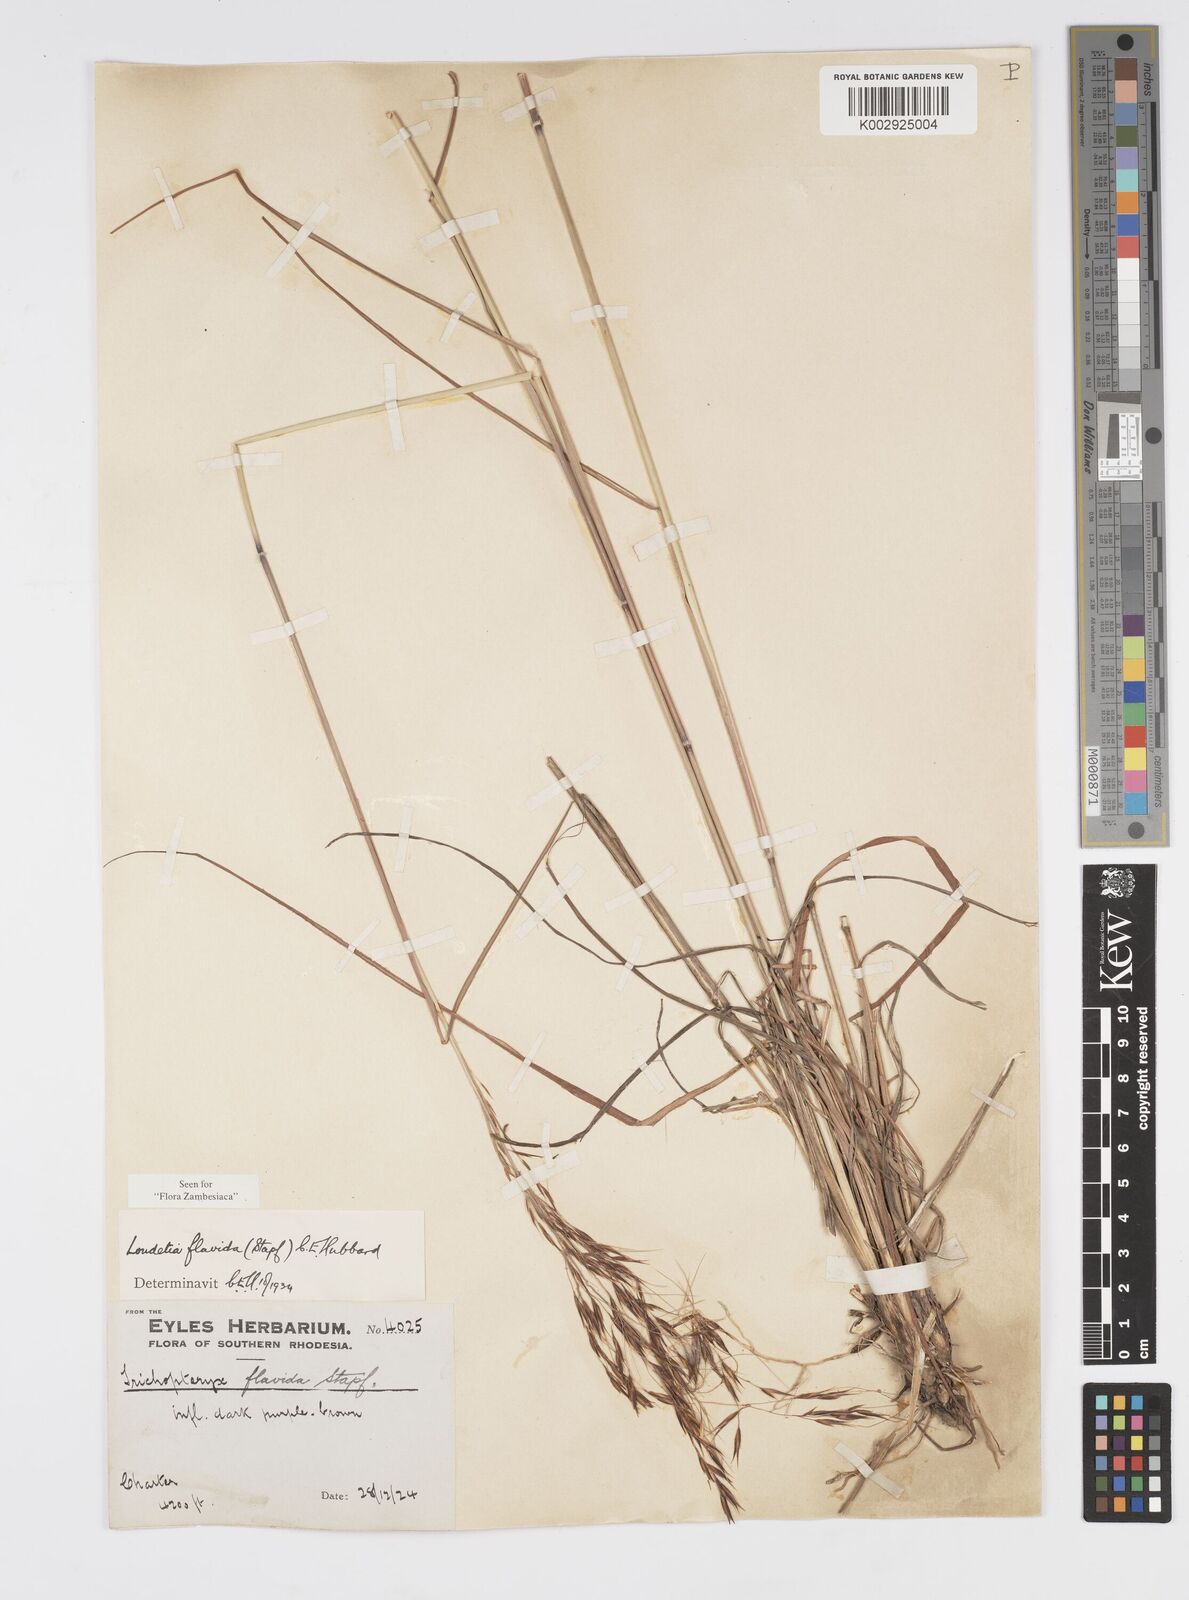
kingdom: Plantae
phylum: Tracheophyta
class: Liliopsida
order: Poales
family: Poaceae
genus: Loudetia
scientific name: Loudetia flavida
